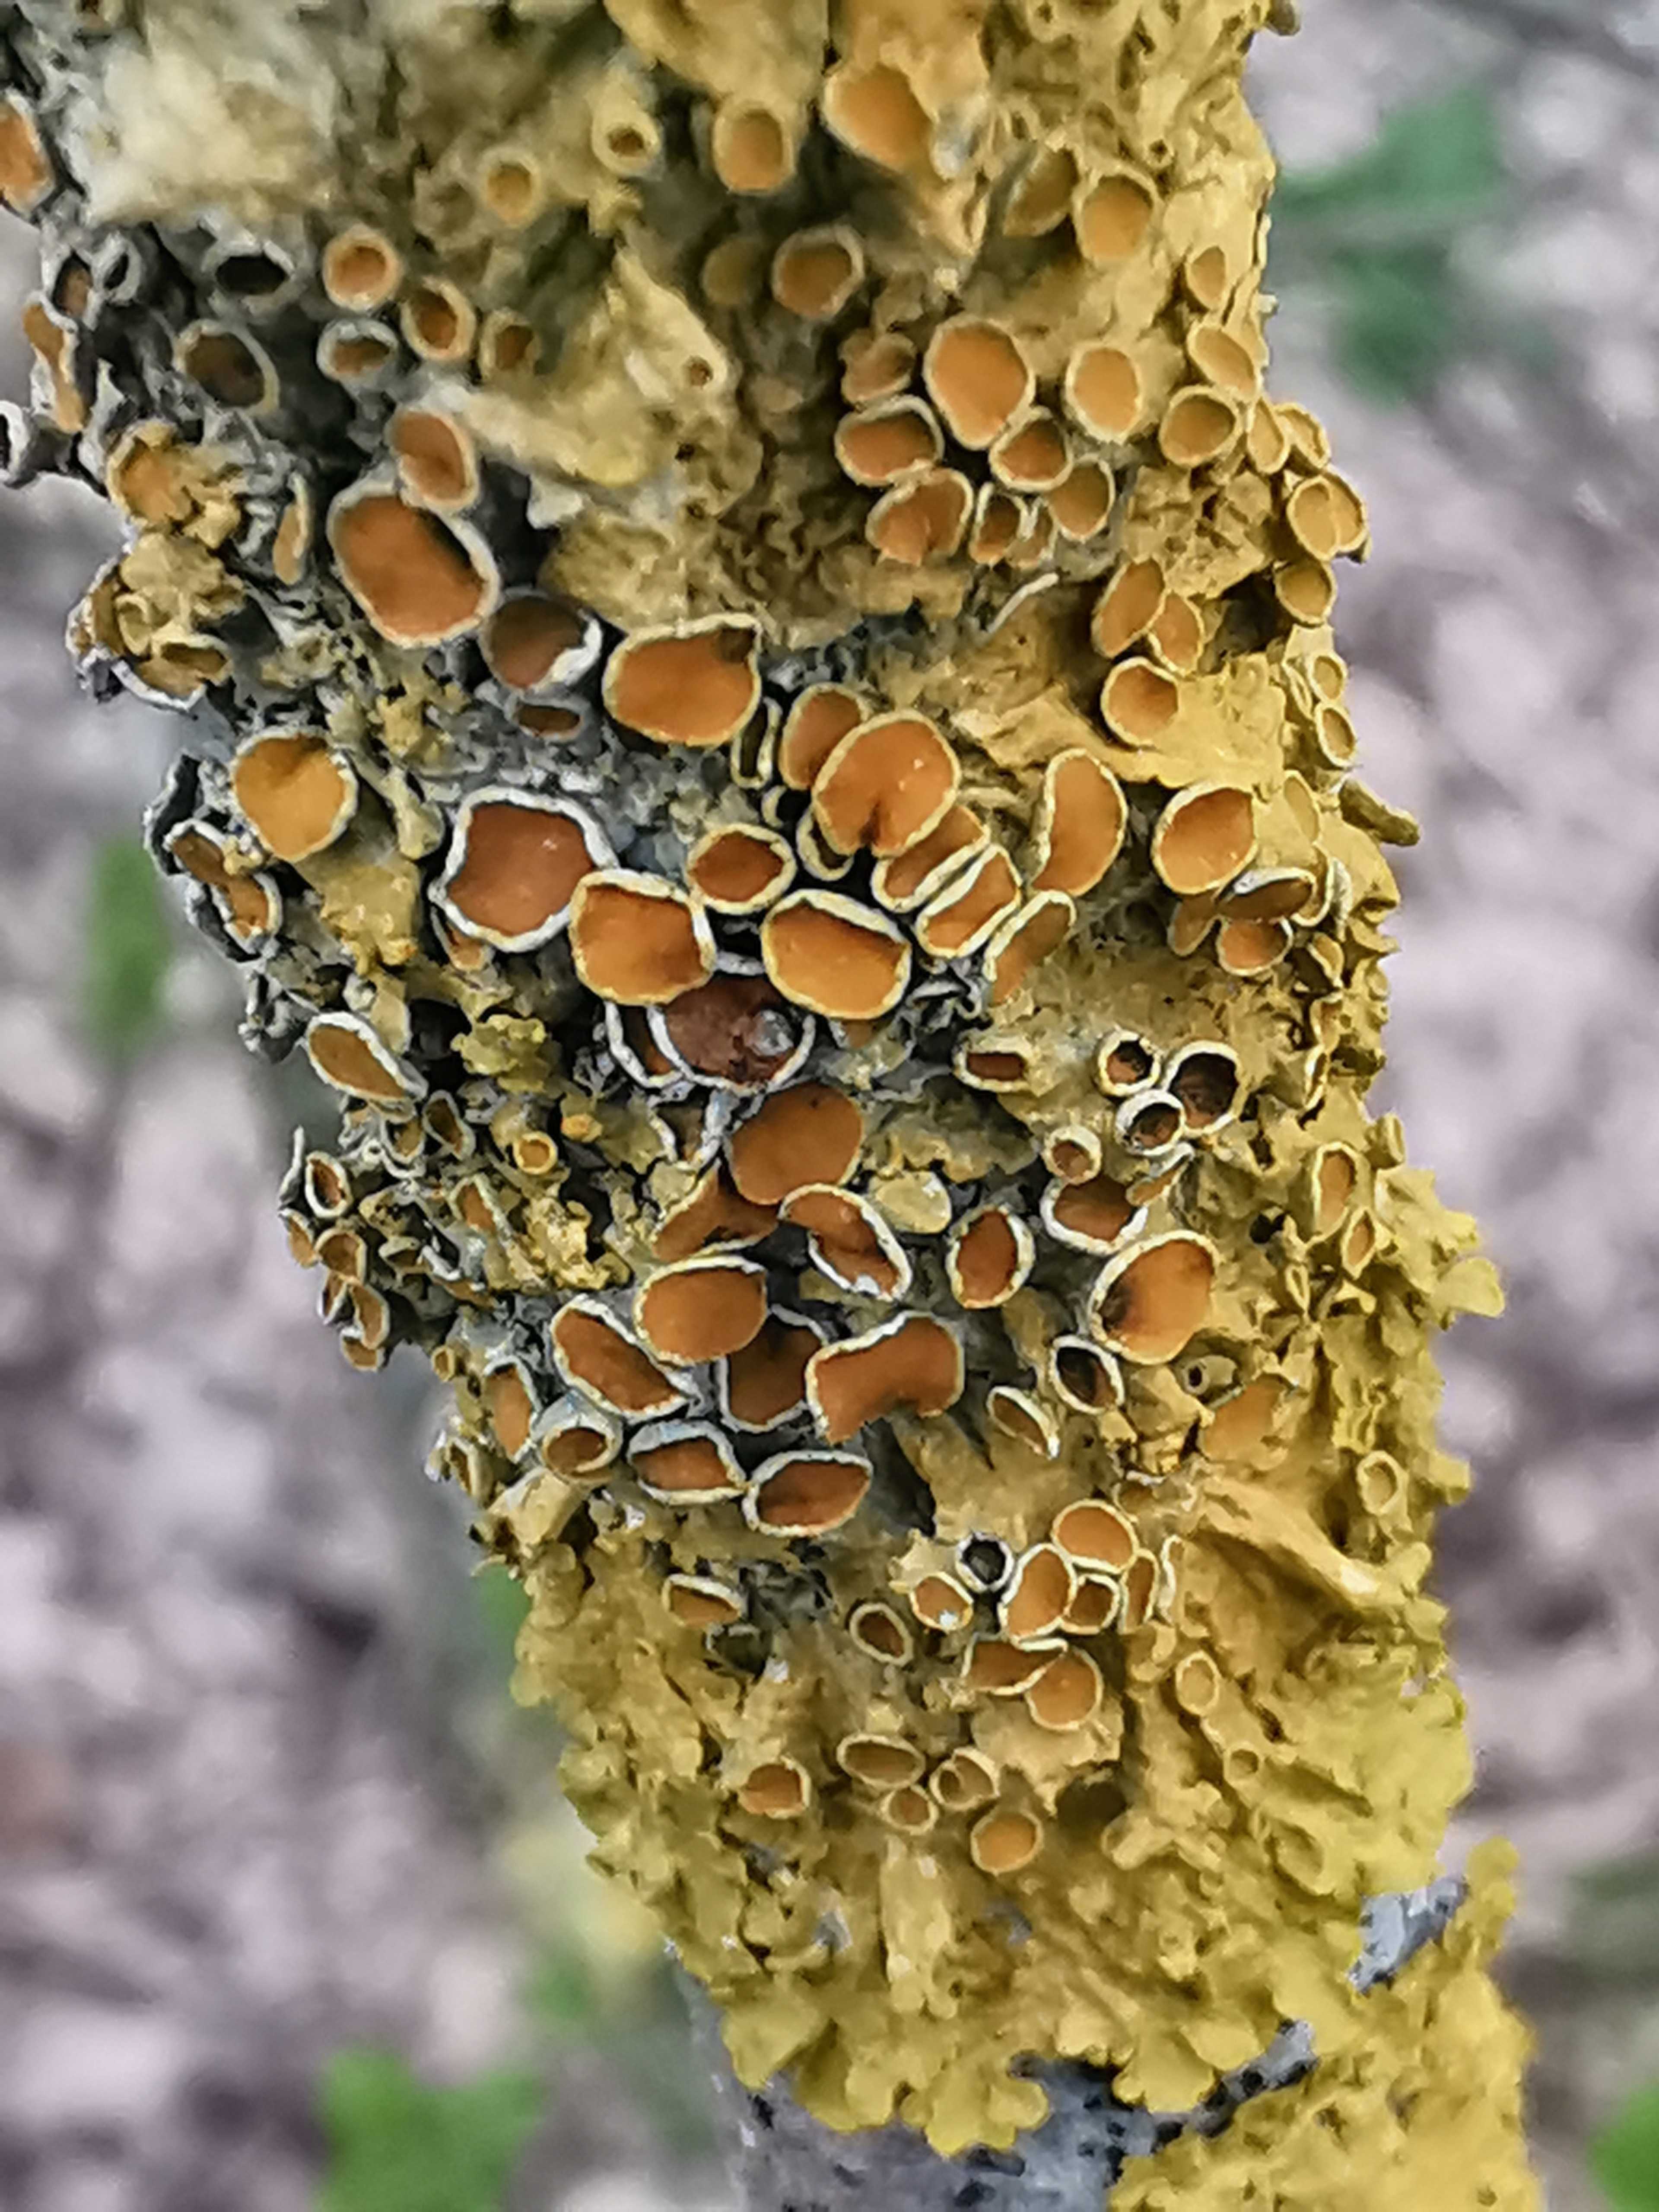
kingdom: Fungi
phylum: Ascomycota
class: Lecanoromycetes
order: Teloschistales
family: Teloschistaceae
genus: Xanthoria
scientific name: Xanthoria parietina
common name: almindelig væggelav
